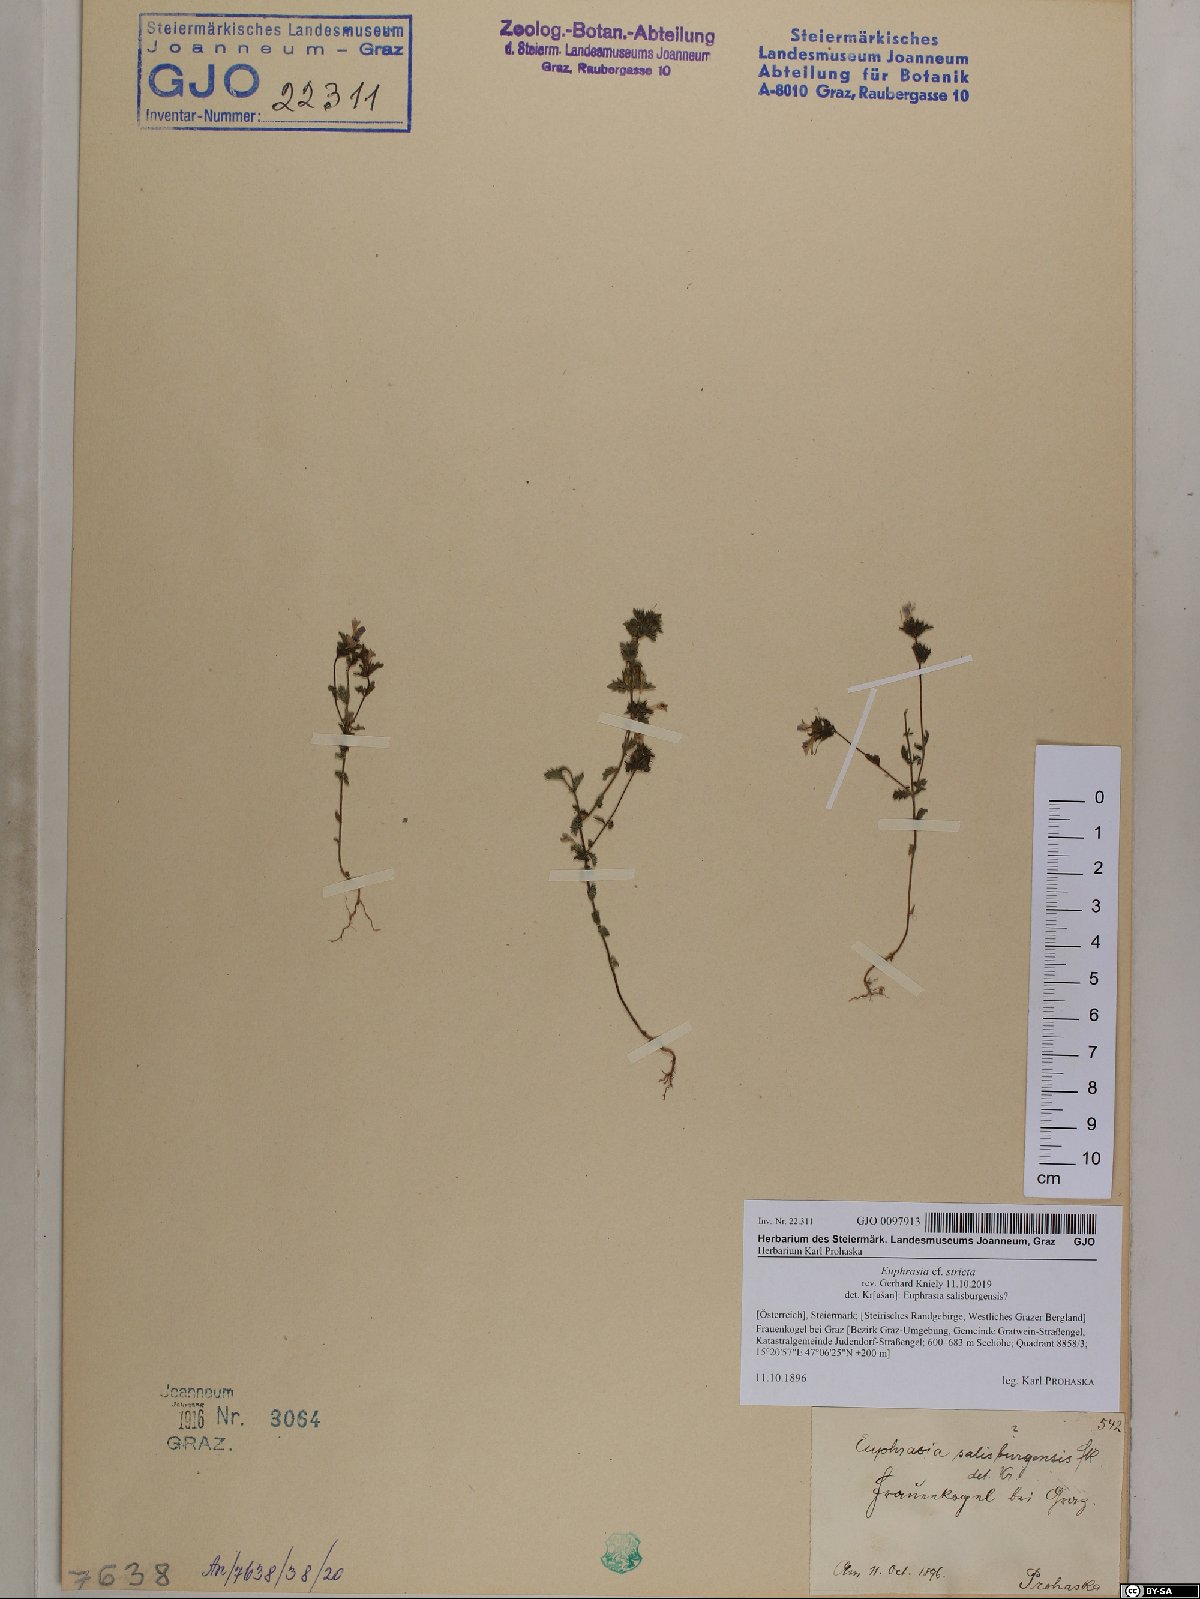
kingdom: Plantae
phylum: Tracheophyta
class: Magnoliopsida
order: Lamiales
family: Orobanchaceae
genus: Euphrasia
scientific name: Euphrasia stricta
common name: Drug eyebright
